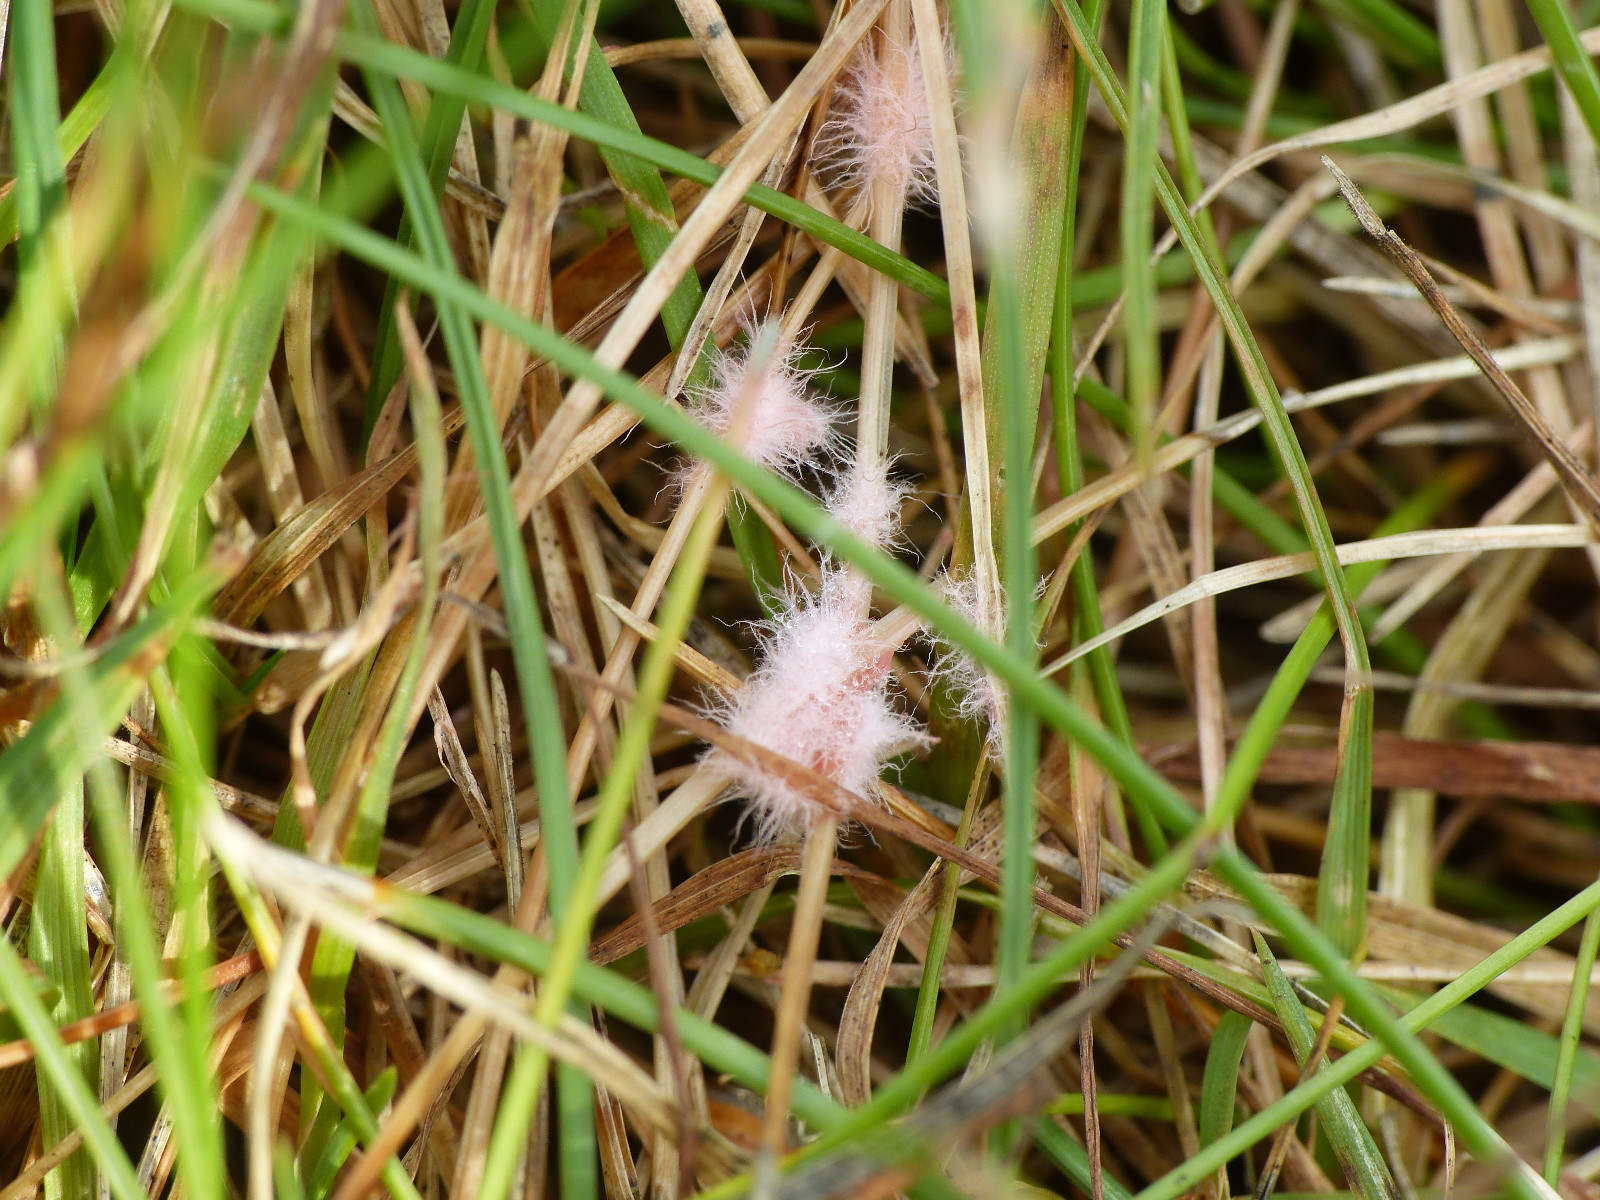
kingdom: Fungi
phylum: Basidiomycota
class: Agaricomycetes
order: Corticiales
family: Corticiaceae
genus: Laetisaria
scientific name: Laetisaria
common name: rødtråd
